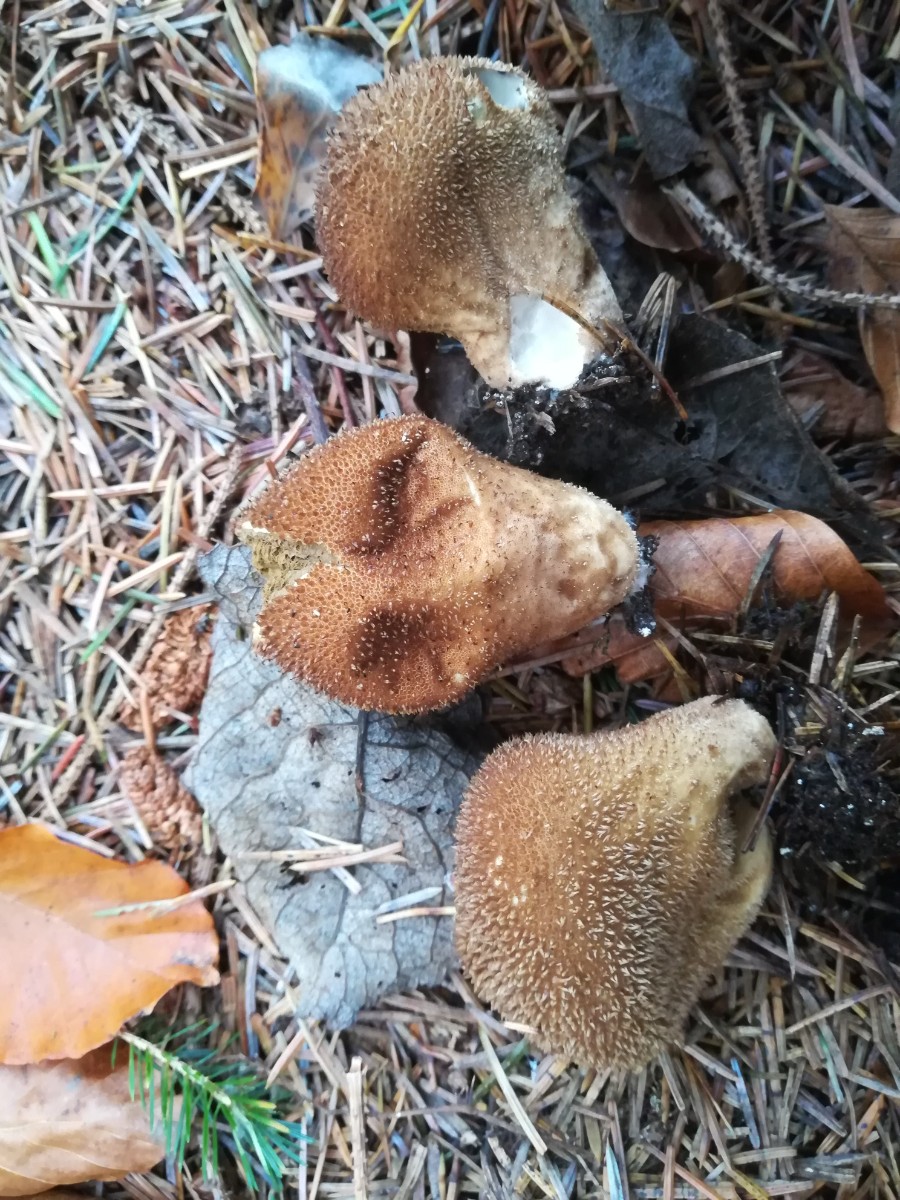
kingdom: Fungi
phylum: Basidiomycota
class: Agaricomycetes
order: Agaricales
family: Lycoperdaceae
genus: Lycoperdon
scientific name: Lycoperdon nigrescens
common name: sortagtig støvbold
